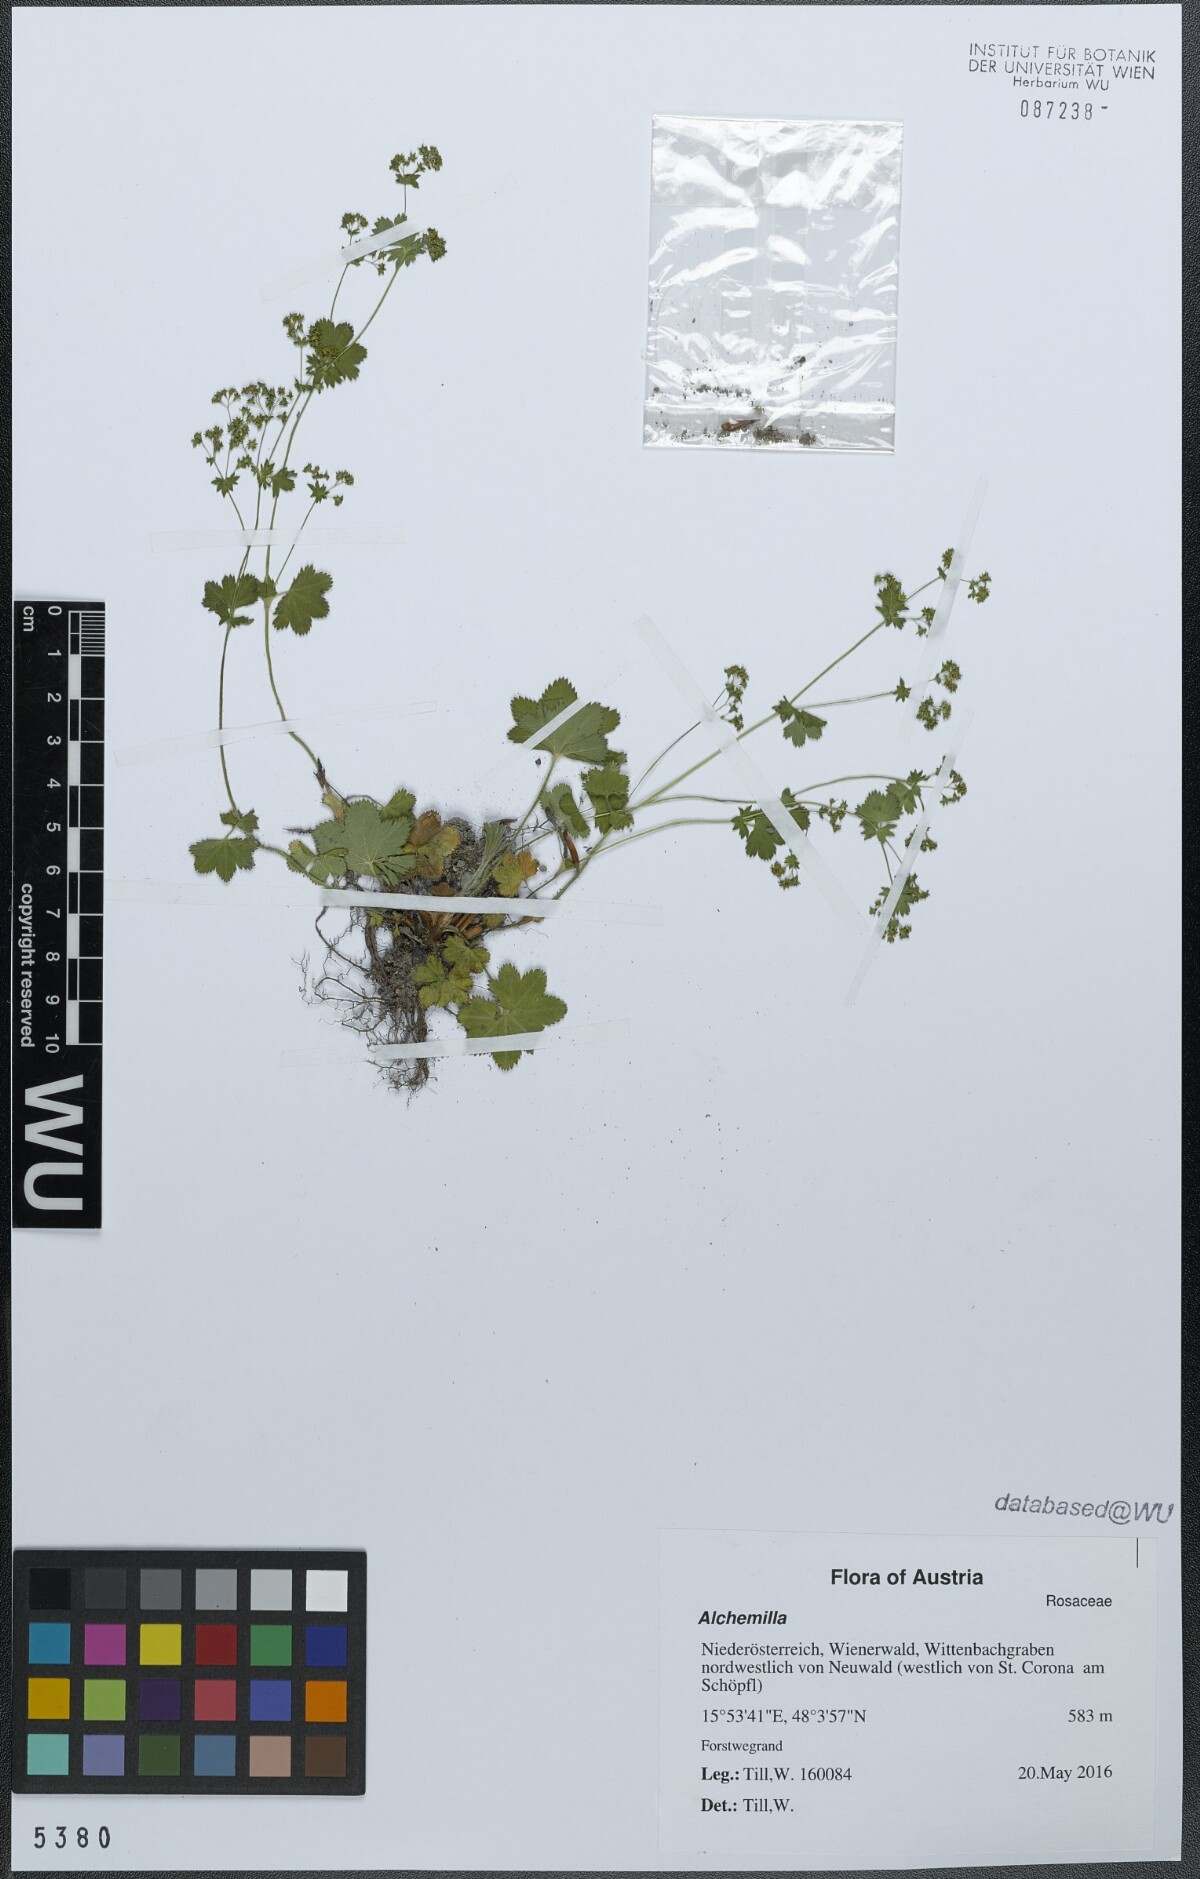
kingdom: Plantae
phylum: Tracheophyta
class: Magnoliopsida
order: Rosales
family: Rosaceae
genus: Alchemilla
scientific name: Alchemilla
